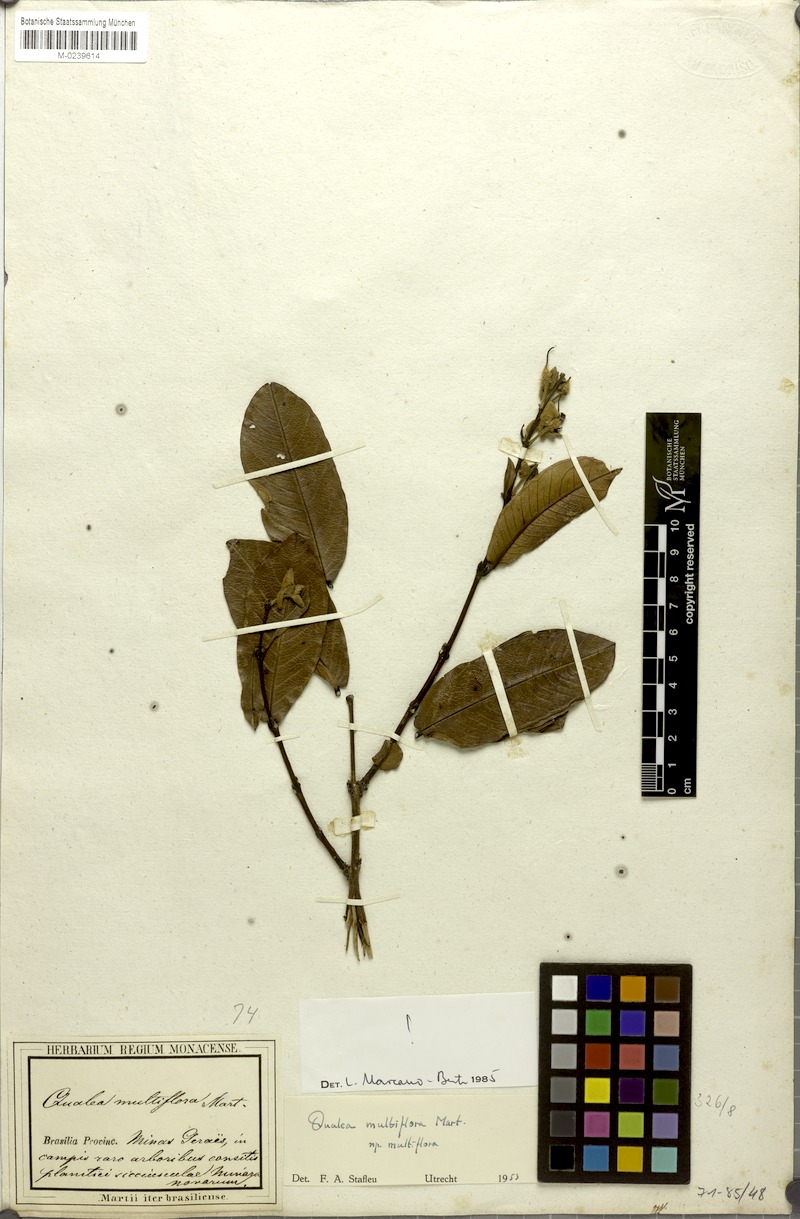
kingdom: Plantae
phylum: Tracheophyta
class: Magnoliopsida
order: Myrtales
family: Vochysiaceae
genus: Qualea
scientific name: Qualea multiflora
